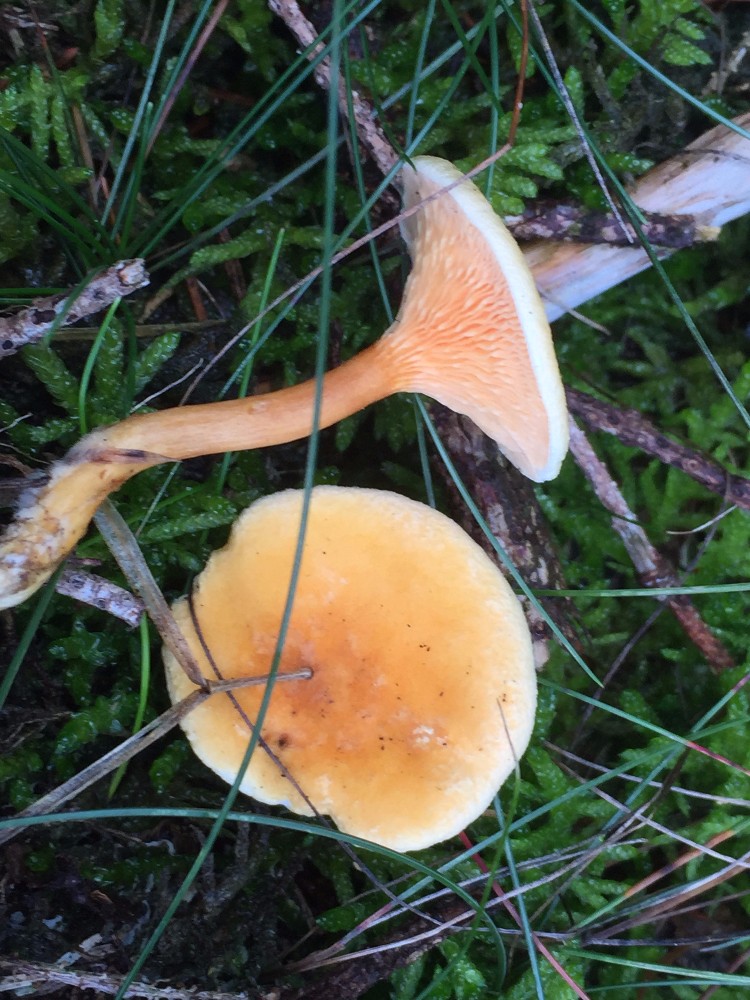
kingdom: Fungi
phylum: Basidiomycota
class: Agaricomycetes
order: Boletales
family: Hygrophoropsidaceae
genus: Hygrophoropsis
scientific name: Hygrophoropsis aurantiaca
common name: almindelig orangekantarel
